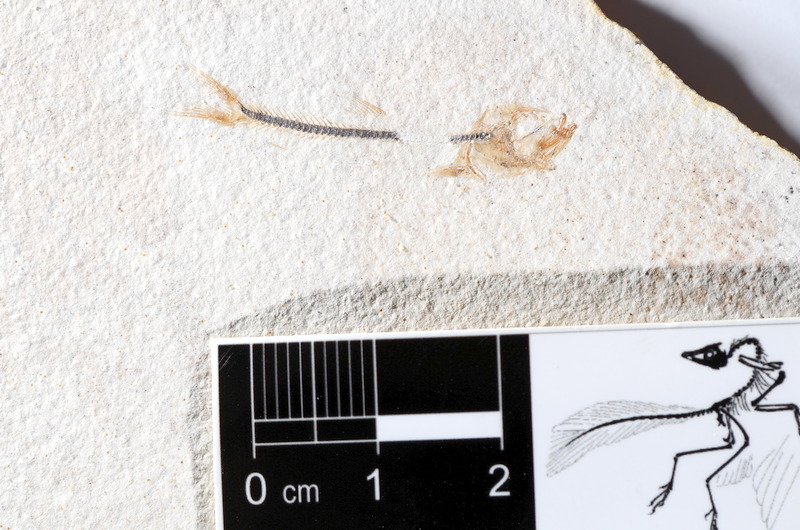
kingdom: Animalia
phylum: Chordata
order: Salmoniformes
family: Orthogonikleithridae
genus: Orthogonikleithrus
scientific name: Orthogonikleithrus hoelli
